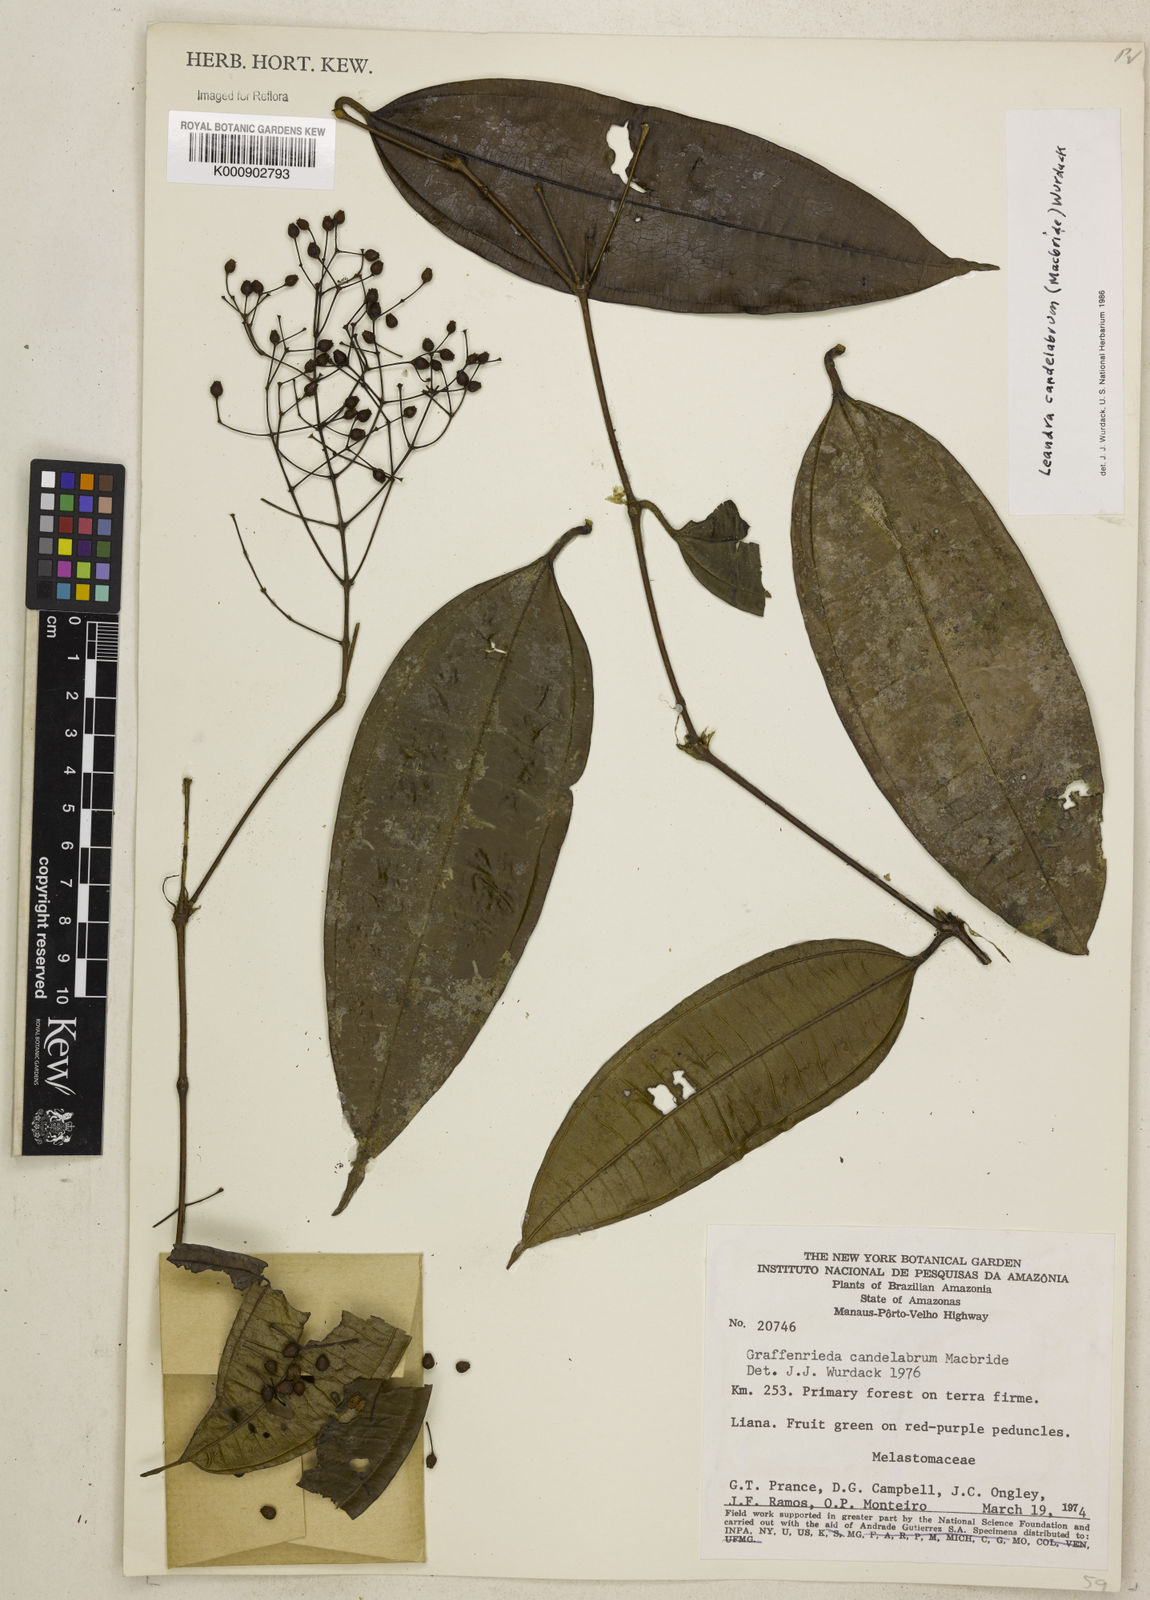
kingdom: Plantae
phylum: Tracheophyta
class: Liliopsida
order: Commelinales
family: Commelinaceae
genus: Callisia
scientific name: Callisia
